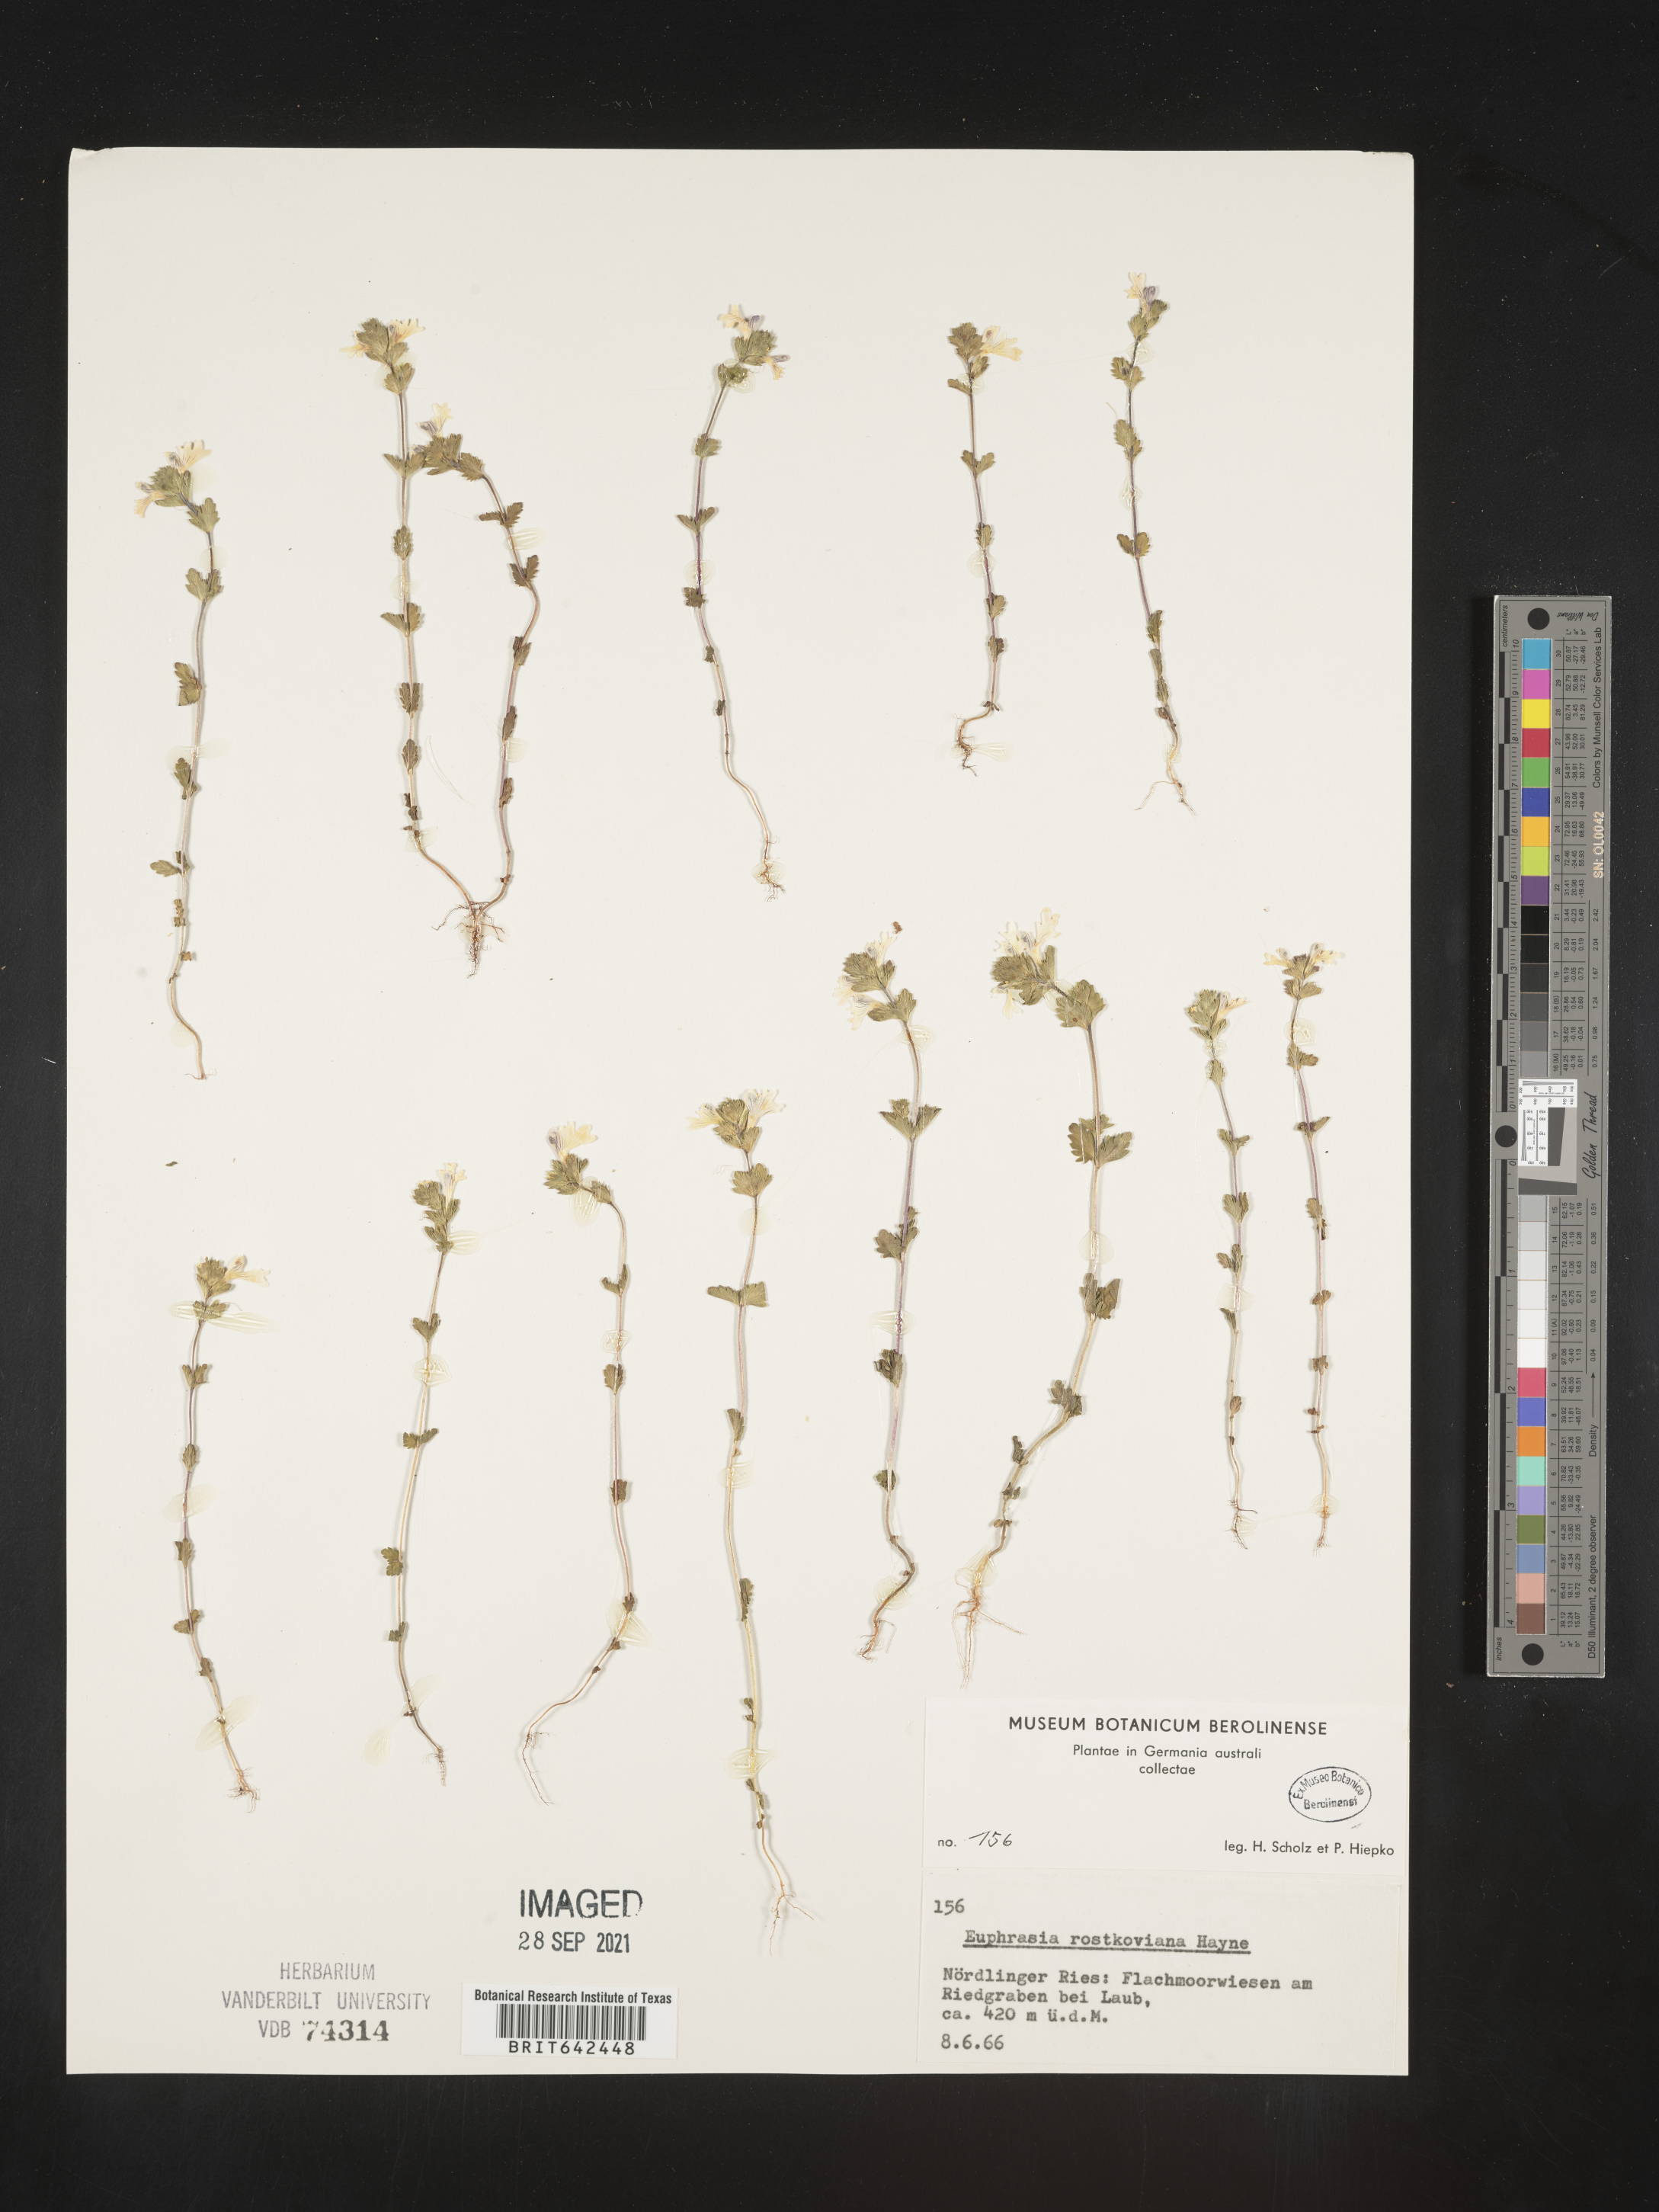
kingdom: Plantae
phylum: Tracheophyta
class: Magnoliopsida
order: Lamiales
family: Orobanchaceae
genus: Euphrasia
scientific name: Euphrasia
